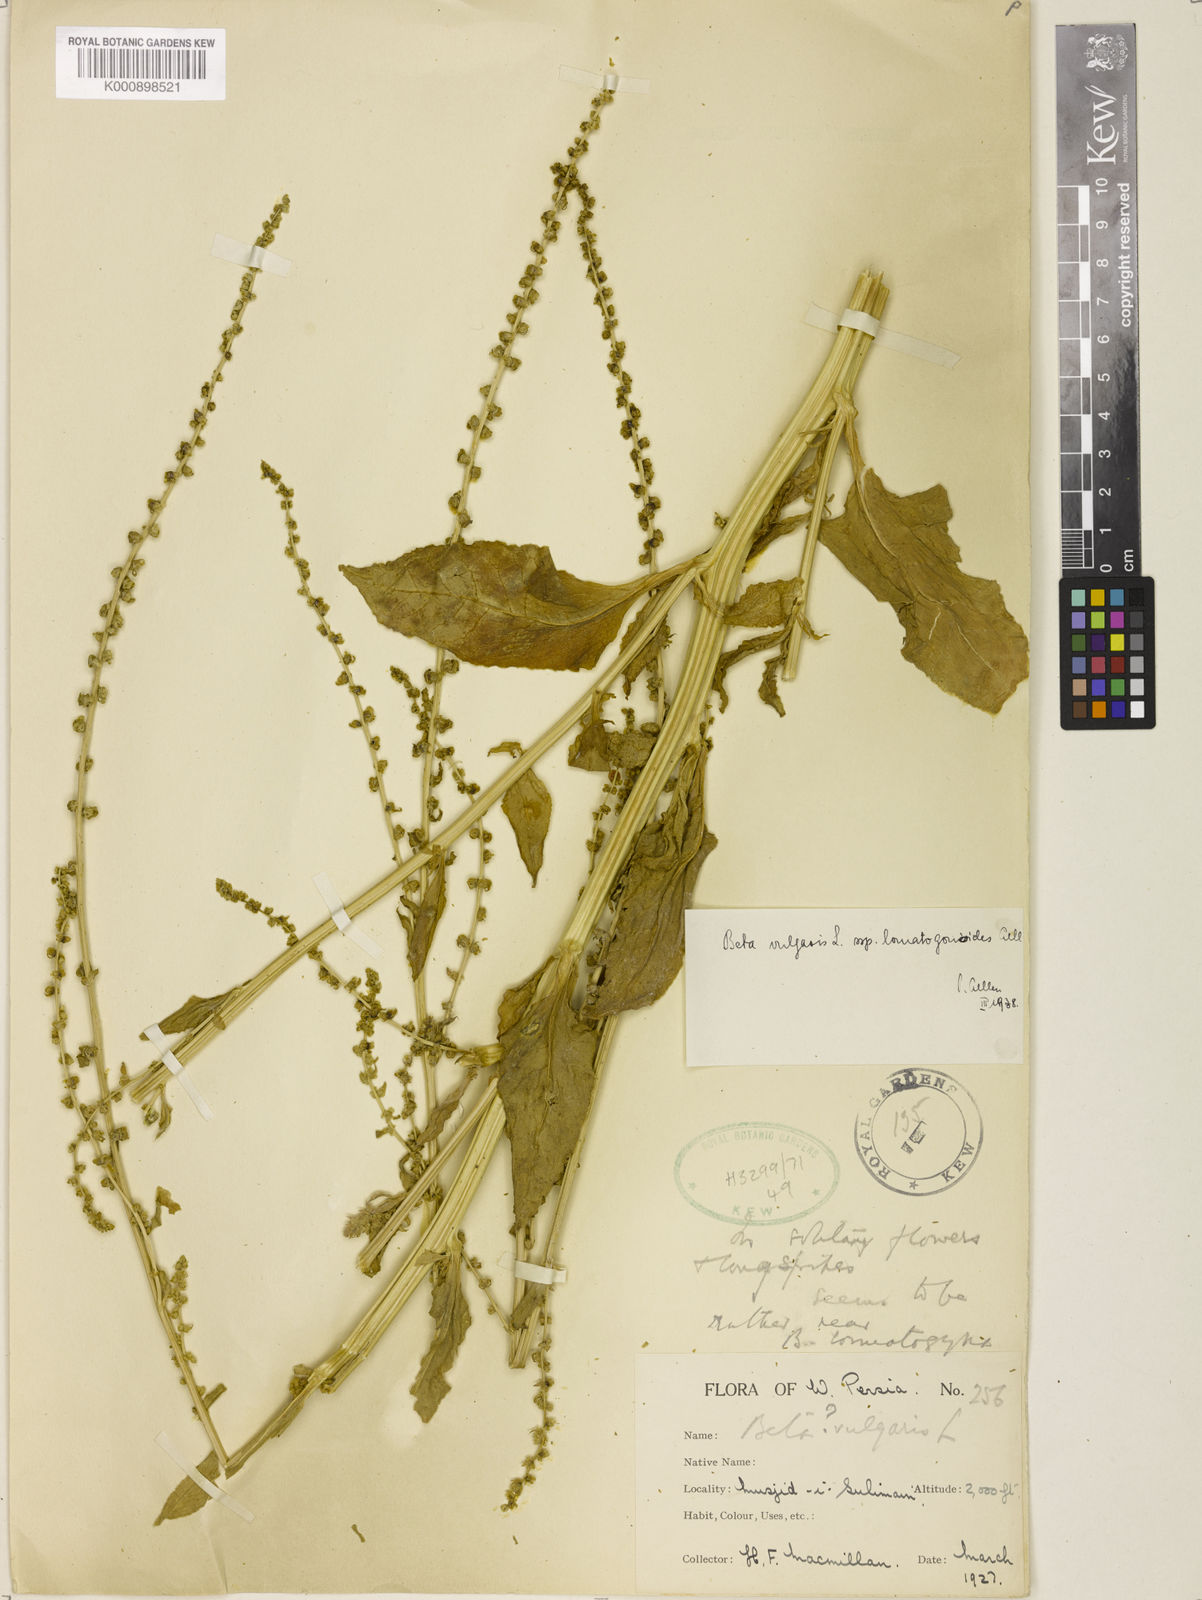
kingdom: Plantae
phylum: Tracheophyta
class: Magnoliopsida
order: Caryophyllales
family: Amaranthaceae
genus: Beta
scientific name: Beta vulgaris
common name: Beet
